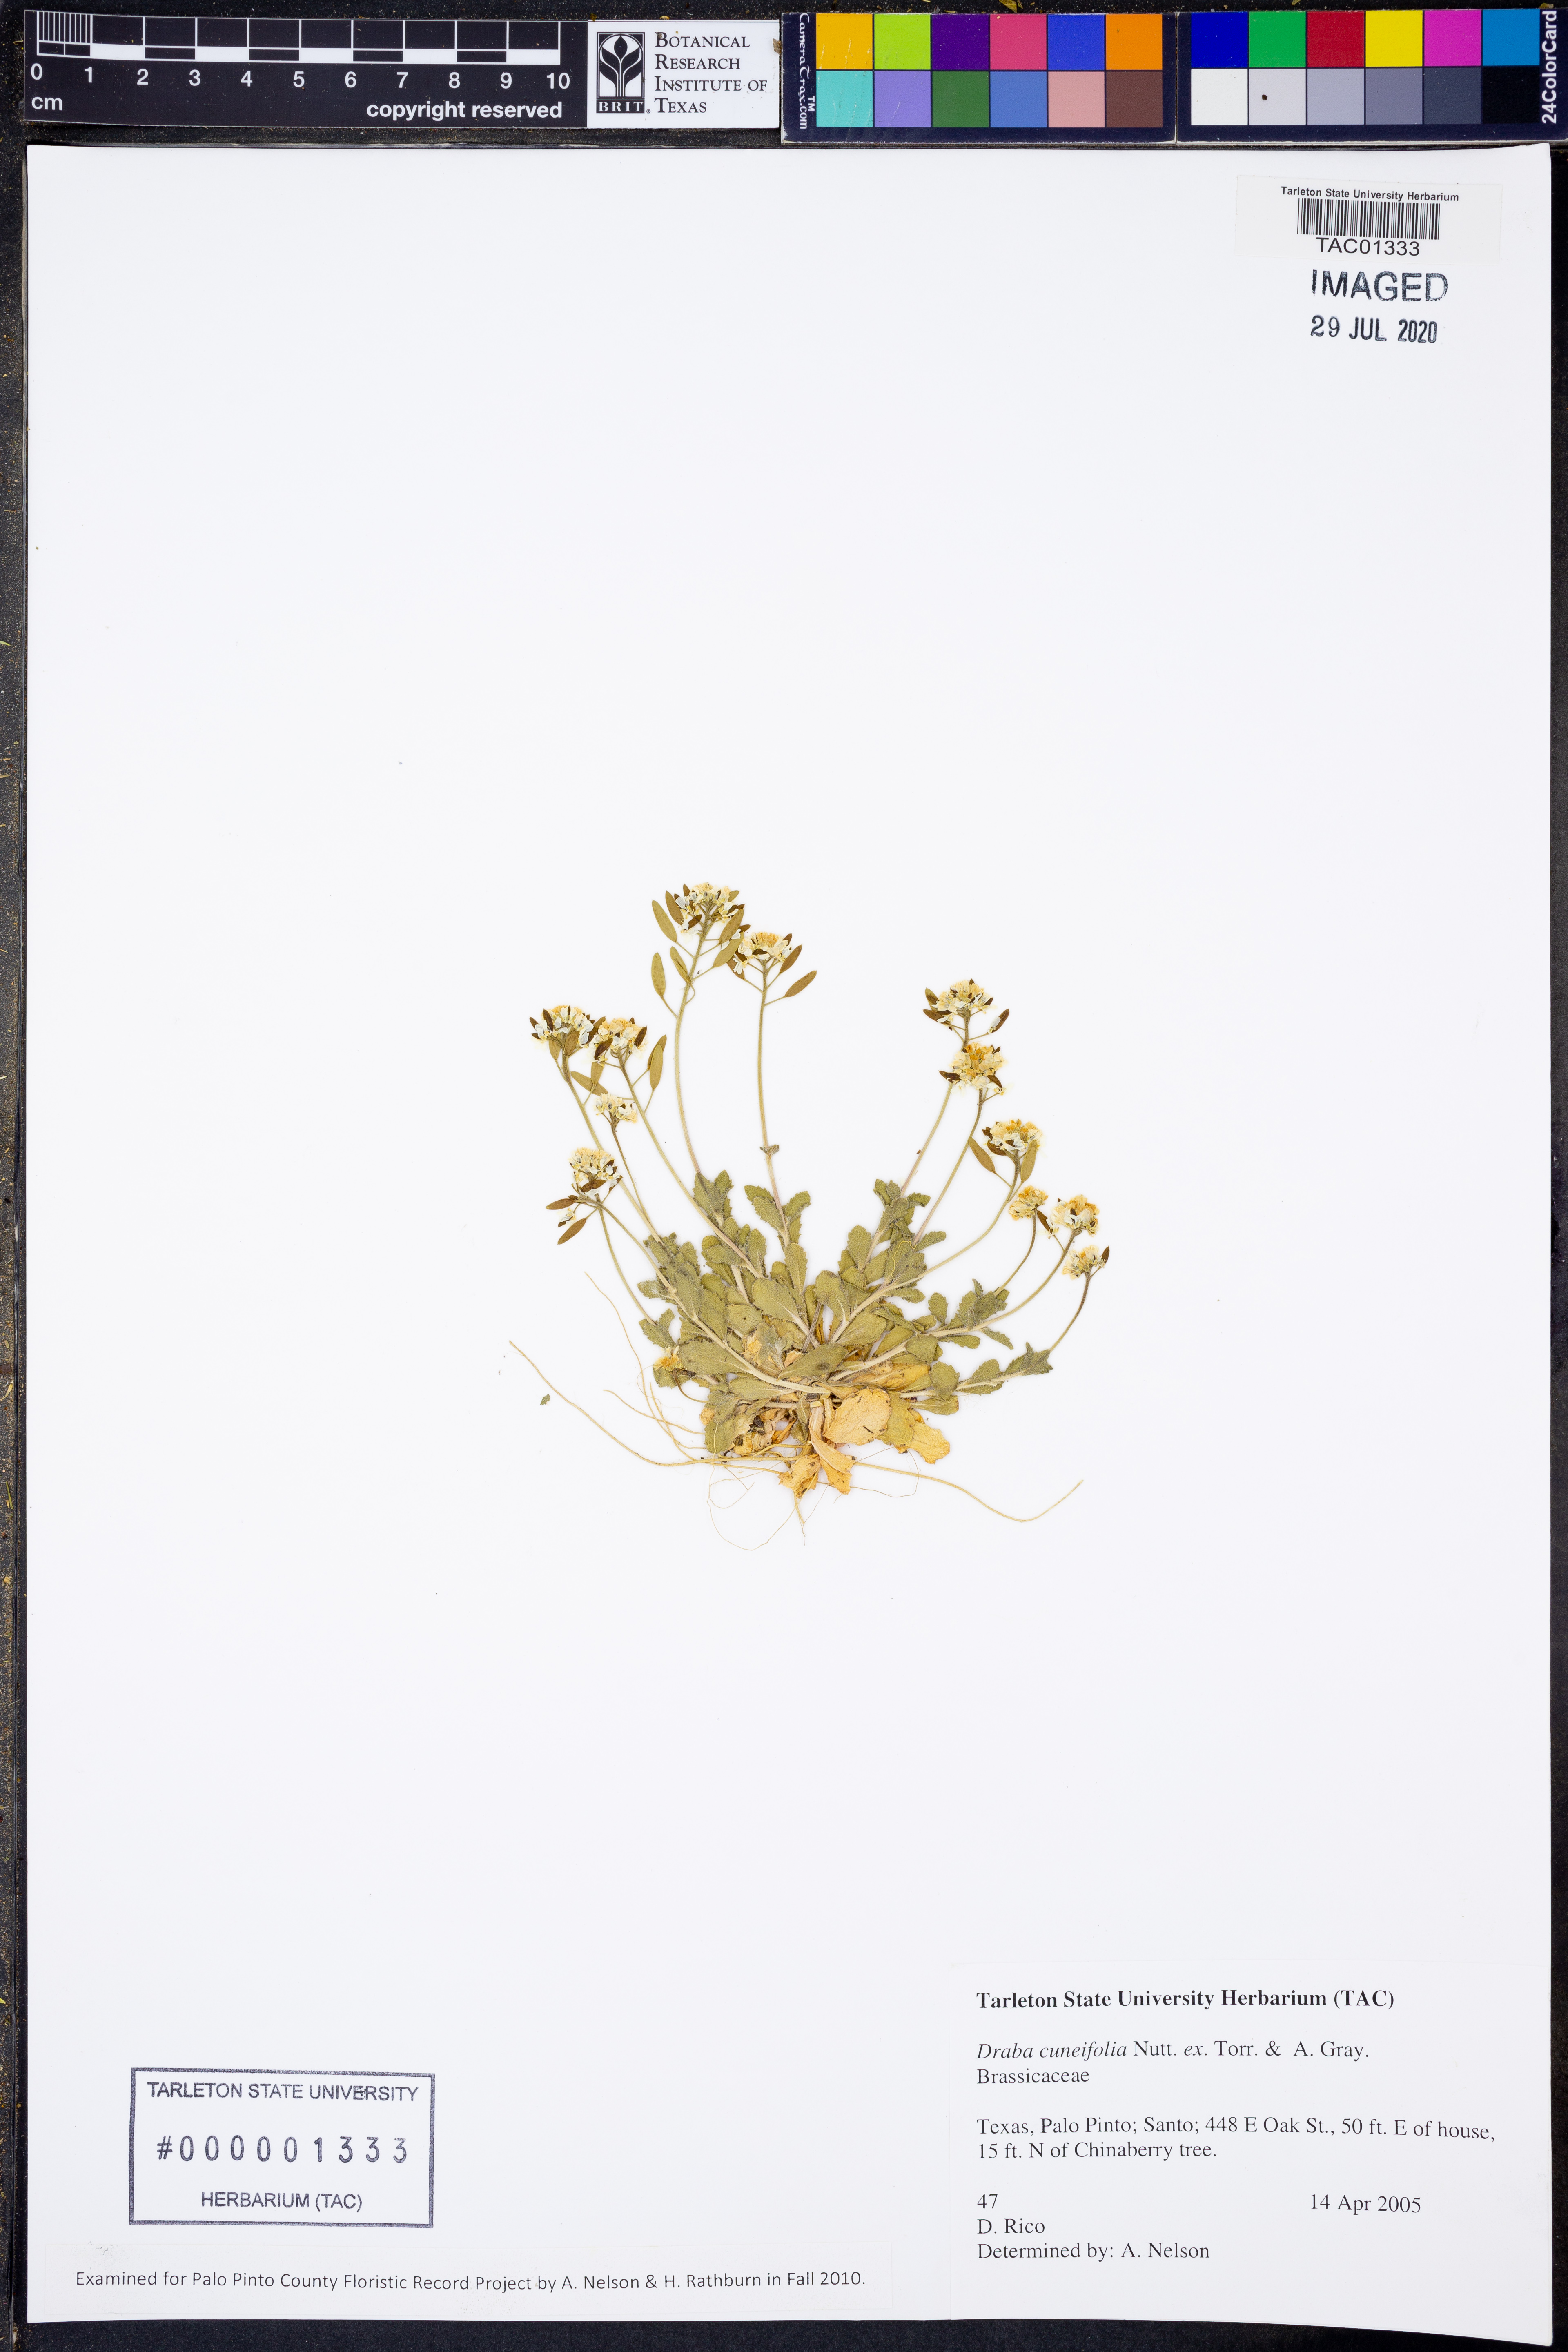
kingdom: Plantae
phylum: Tracheophyta
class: Magnoliopsida
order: Brassicales
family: Brassicaceae
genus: Tomostima
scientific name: Tomostima cuneifolia
